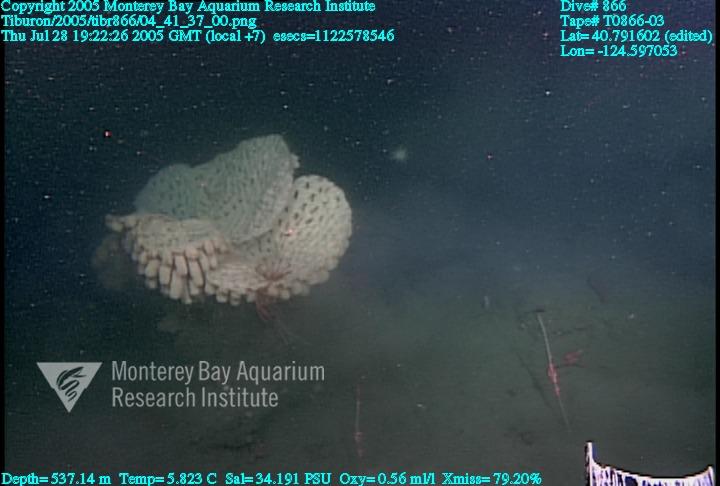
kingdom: Animalia
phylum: Porifera
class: Hexactinellida
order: Sceptrulophora
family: Aphrocallistidae
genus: Heterochone
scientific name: Heterochone calyx
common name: Fingered goblet glass sponge
